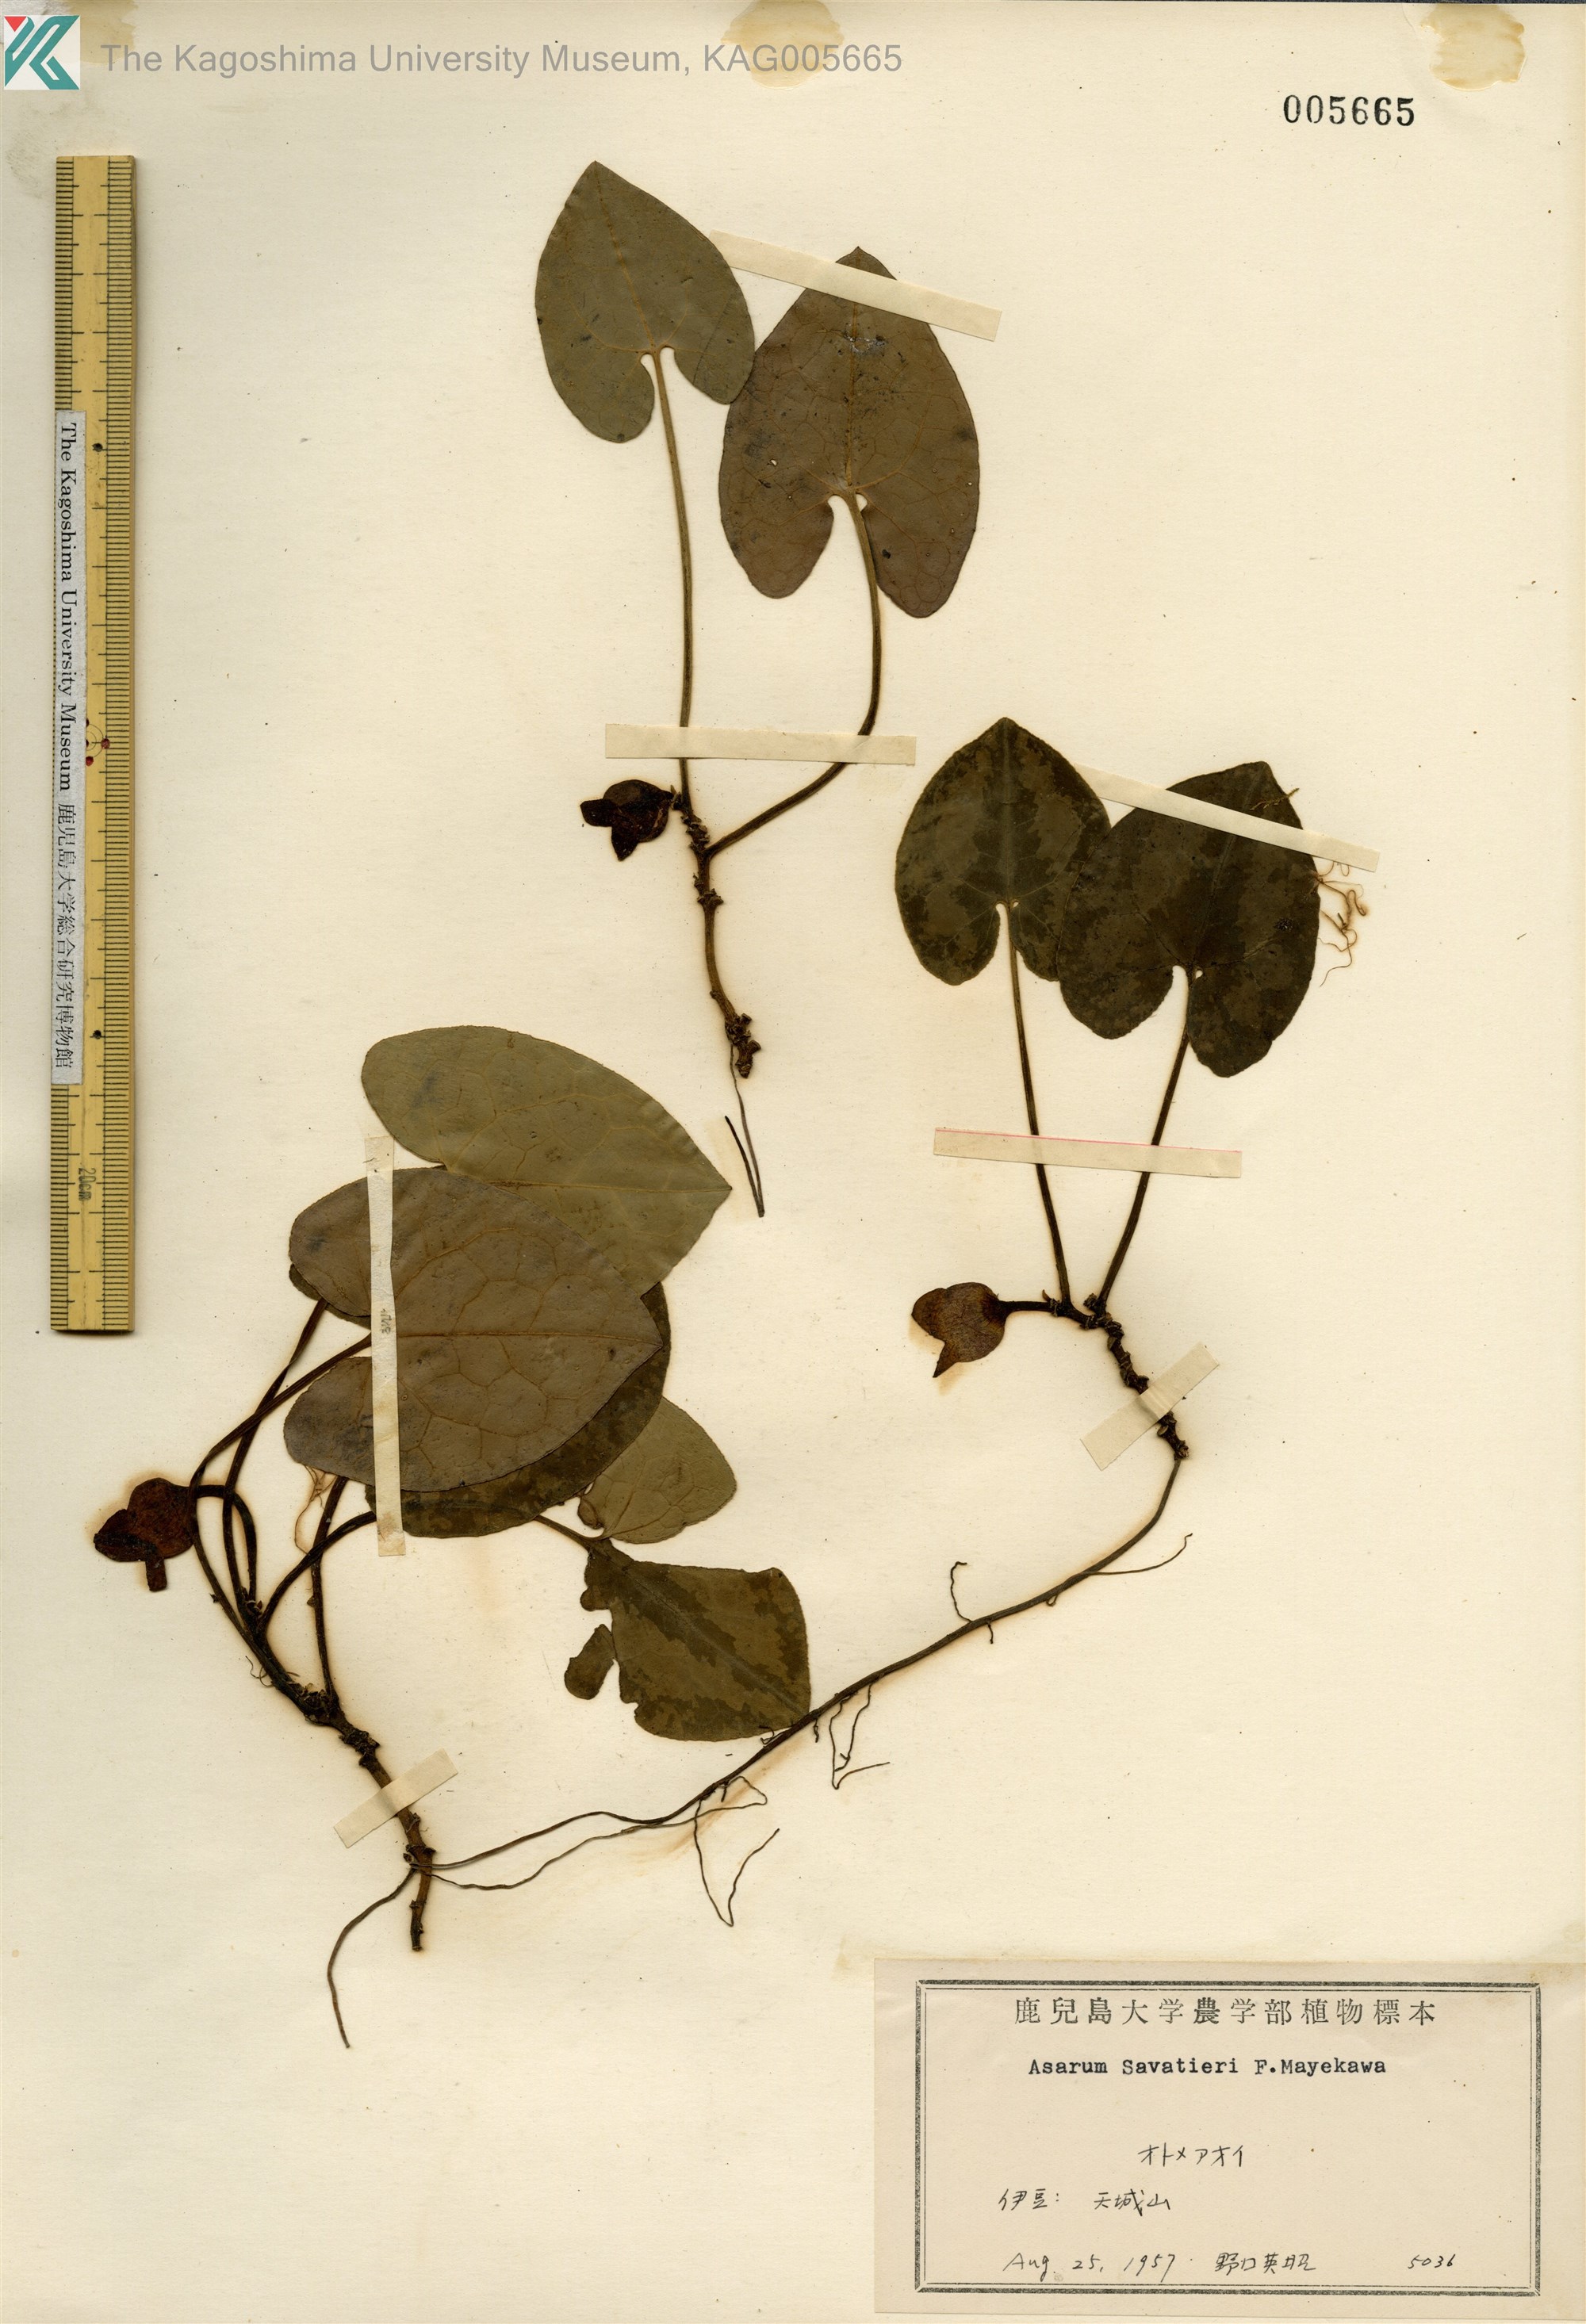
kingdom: Plantae
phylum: Tracheophyta
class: Magnoliopsida
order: Piperales
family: Aristolochiaceae
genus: Asarum
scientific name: Asarum savatieri
